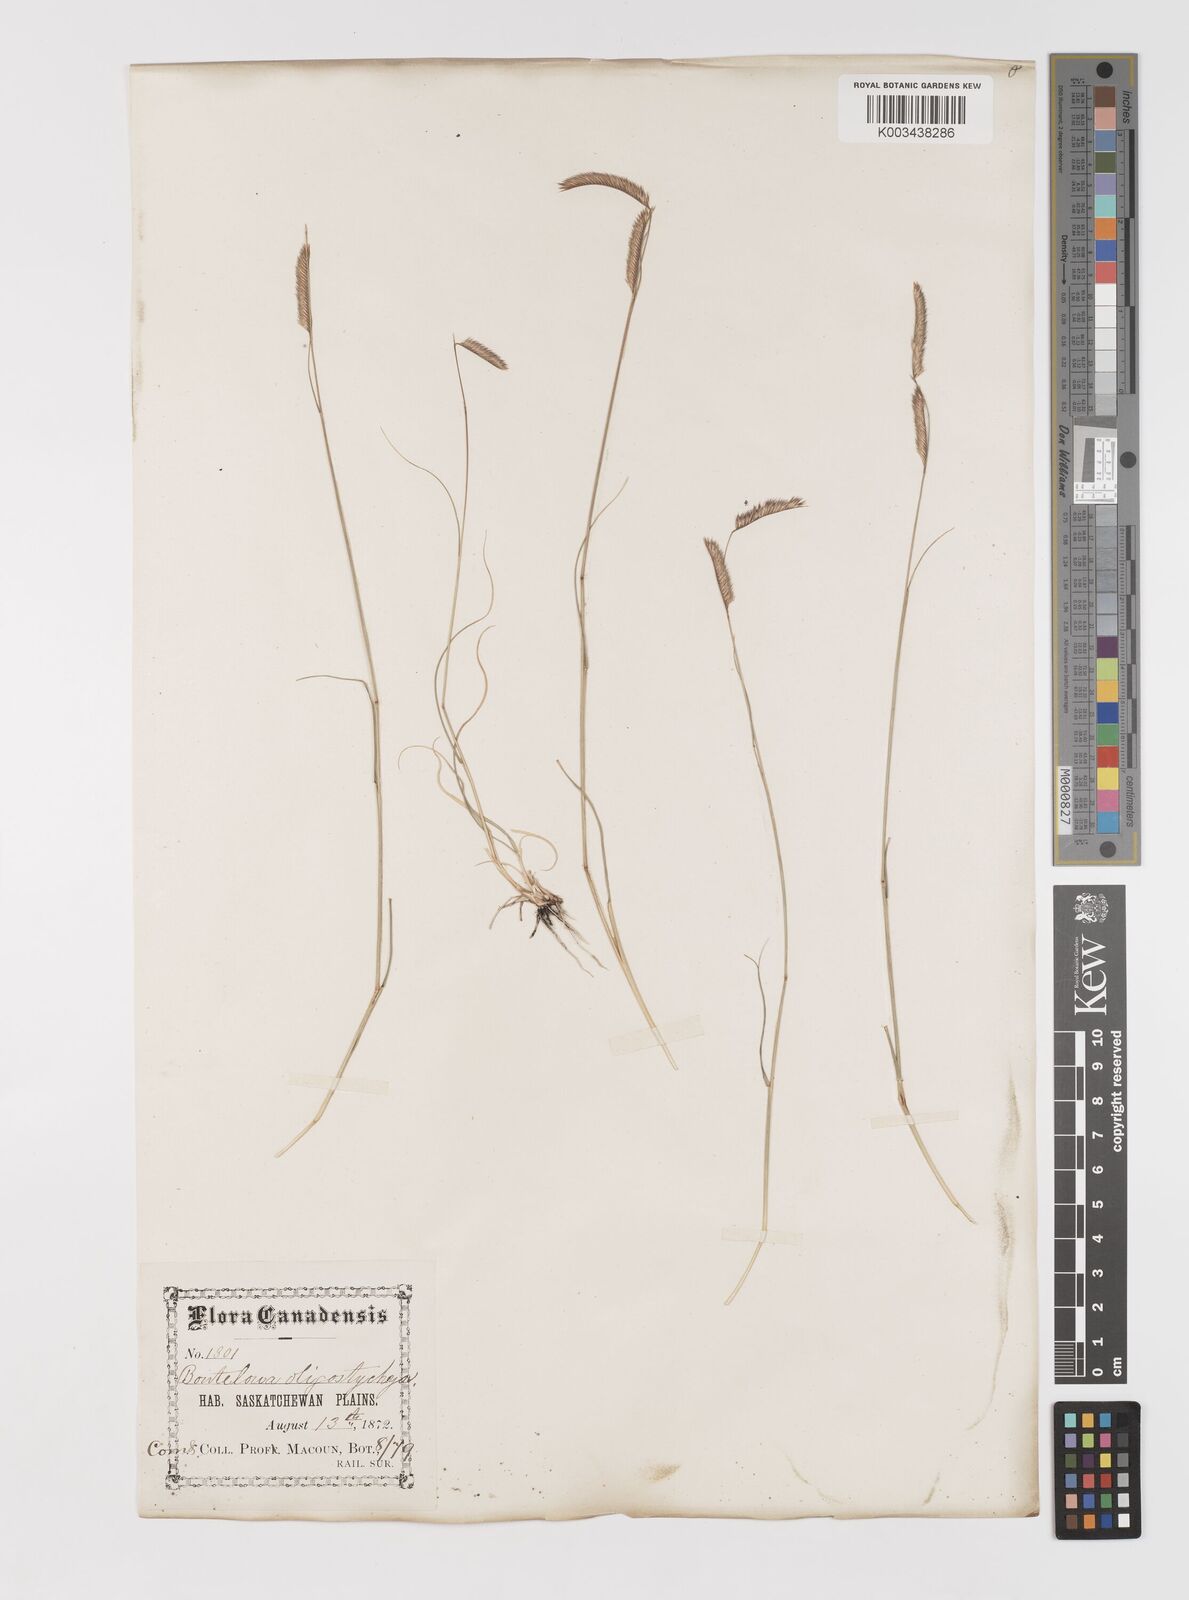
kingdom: Plantae
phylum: Tracheophyta
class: Liliopsida
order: Poales
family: Poaceae
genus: Bouteloua
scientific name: Bouteloua gracilis
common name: Blue grama
